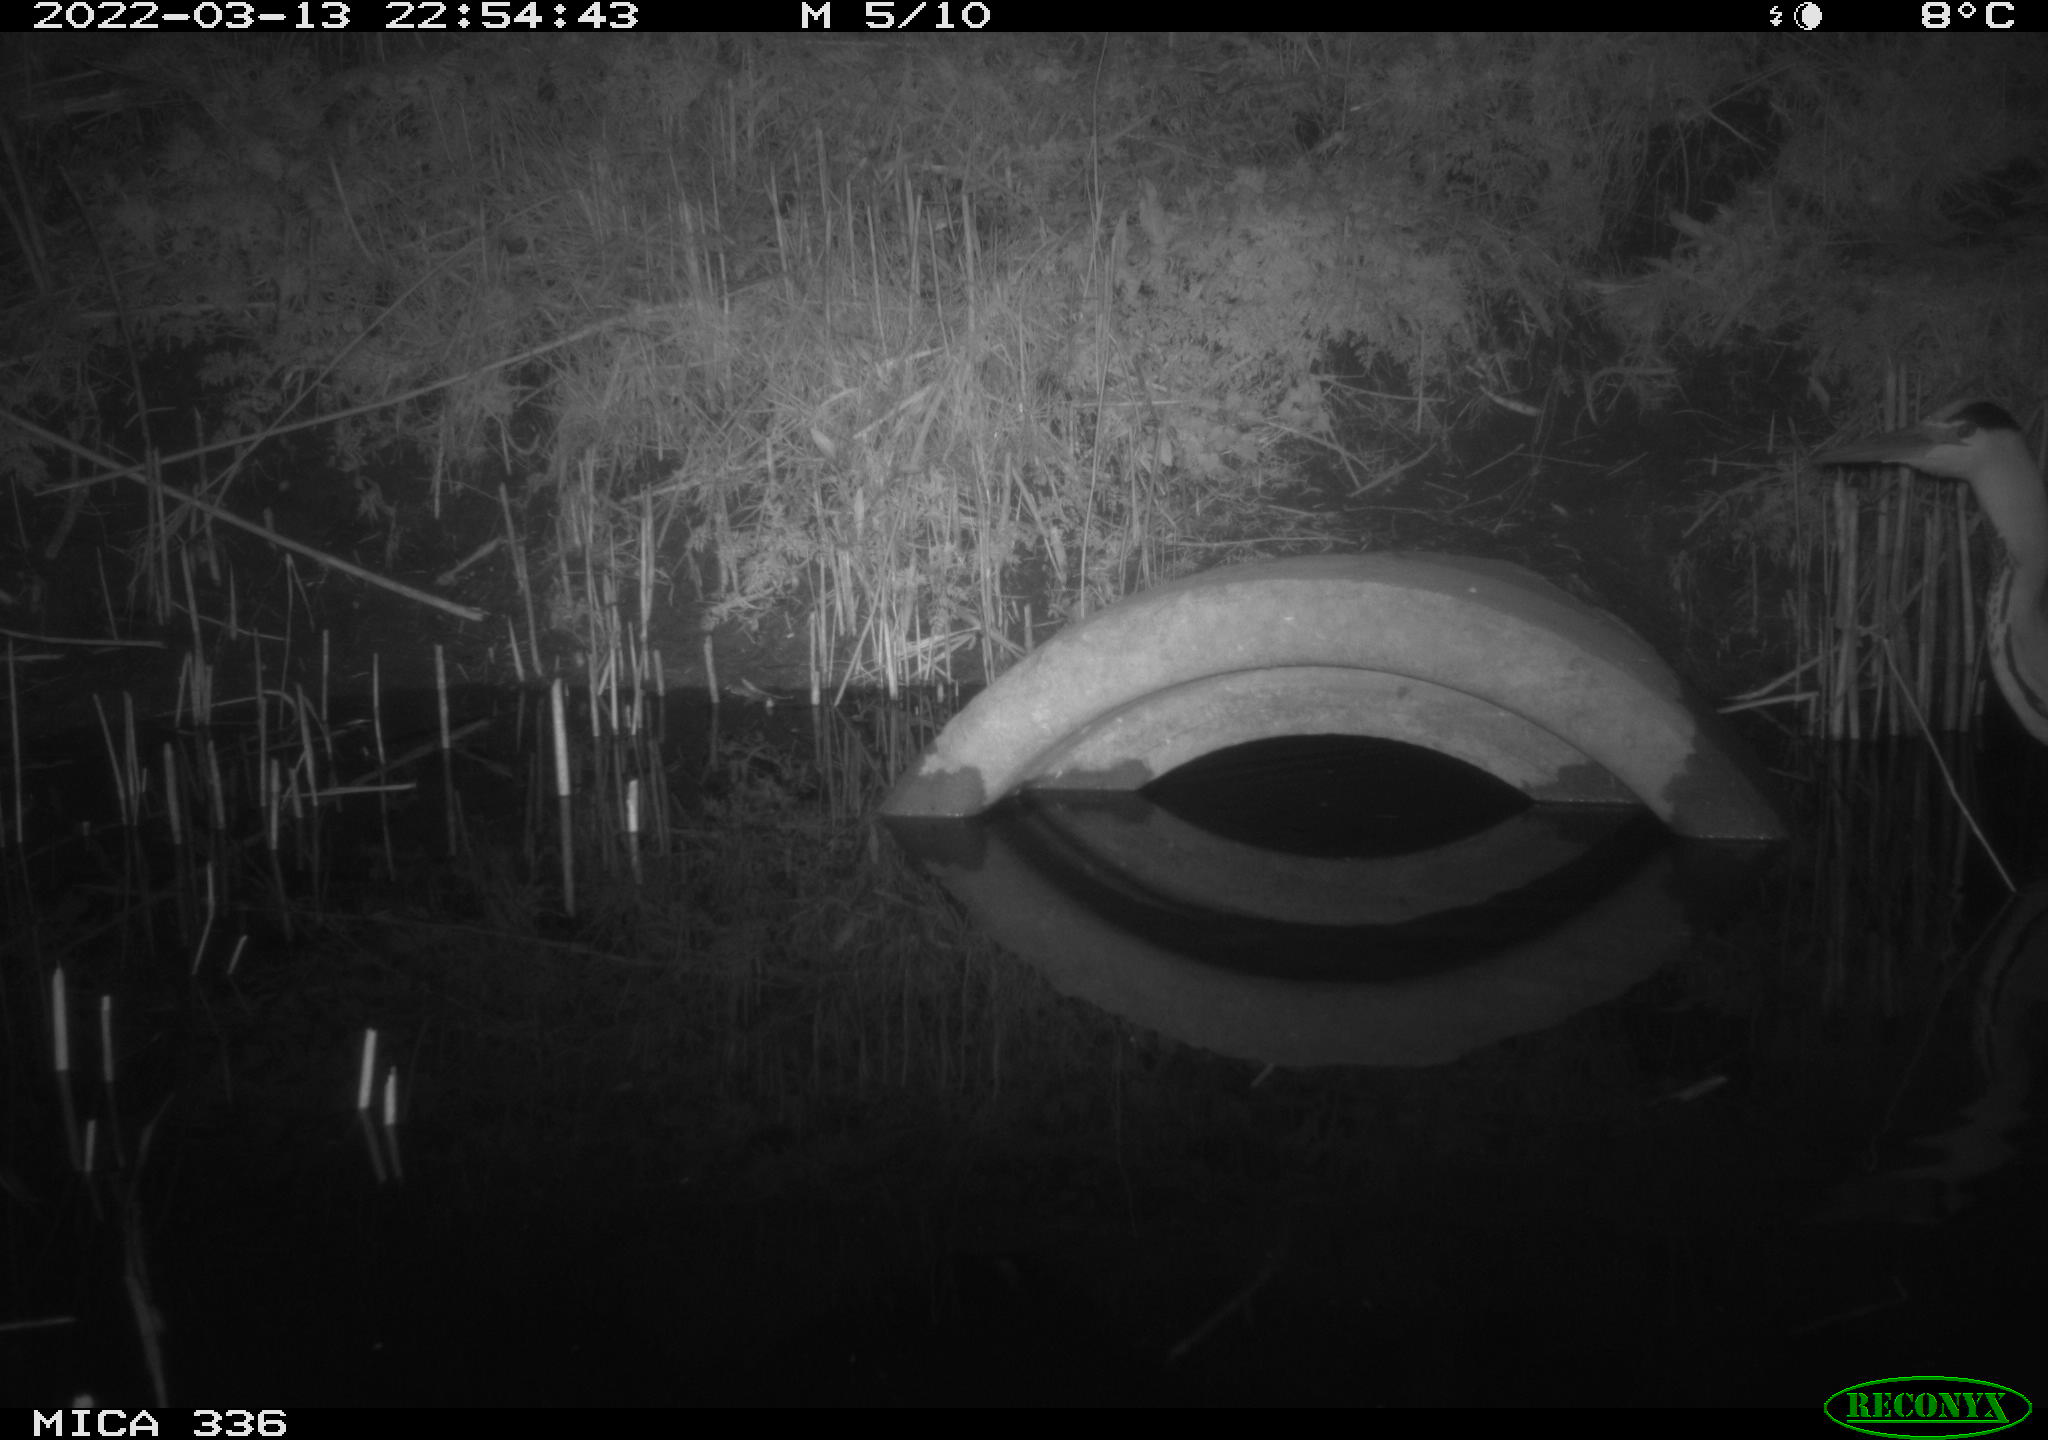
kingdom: Animalia
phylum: Chordata
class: Aves
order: Pelecaniformes
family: Ardeidae
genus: Ardea
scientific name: Ardea cinerea
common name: Grey heron
